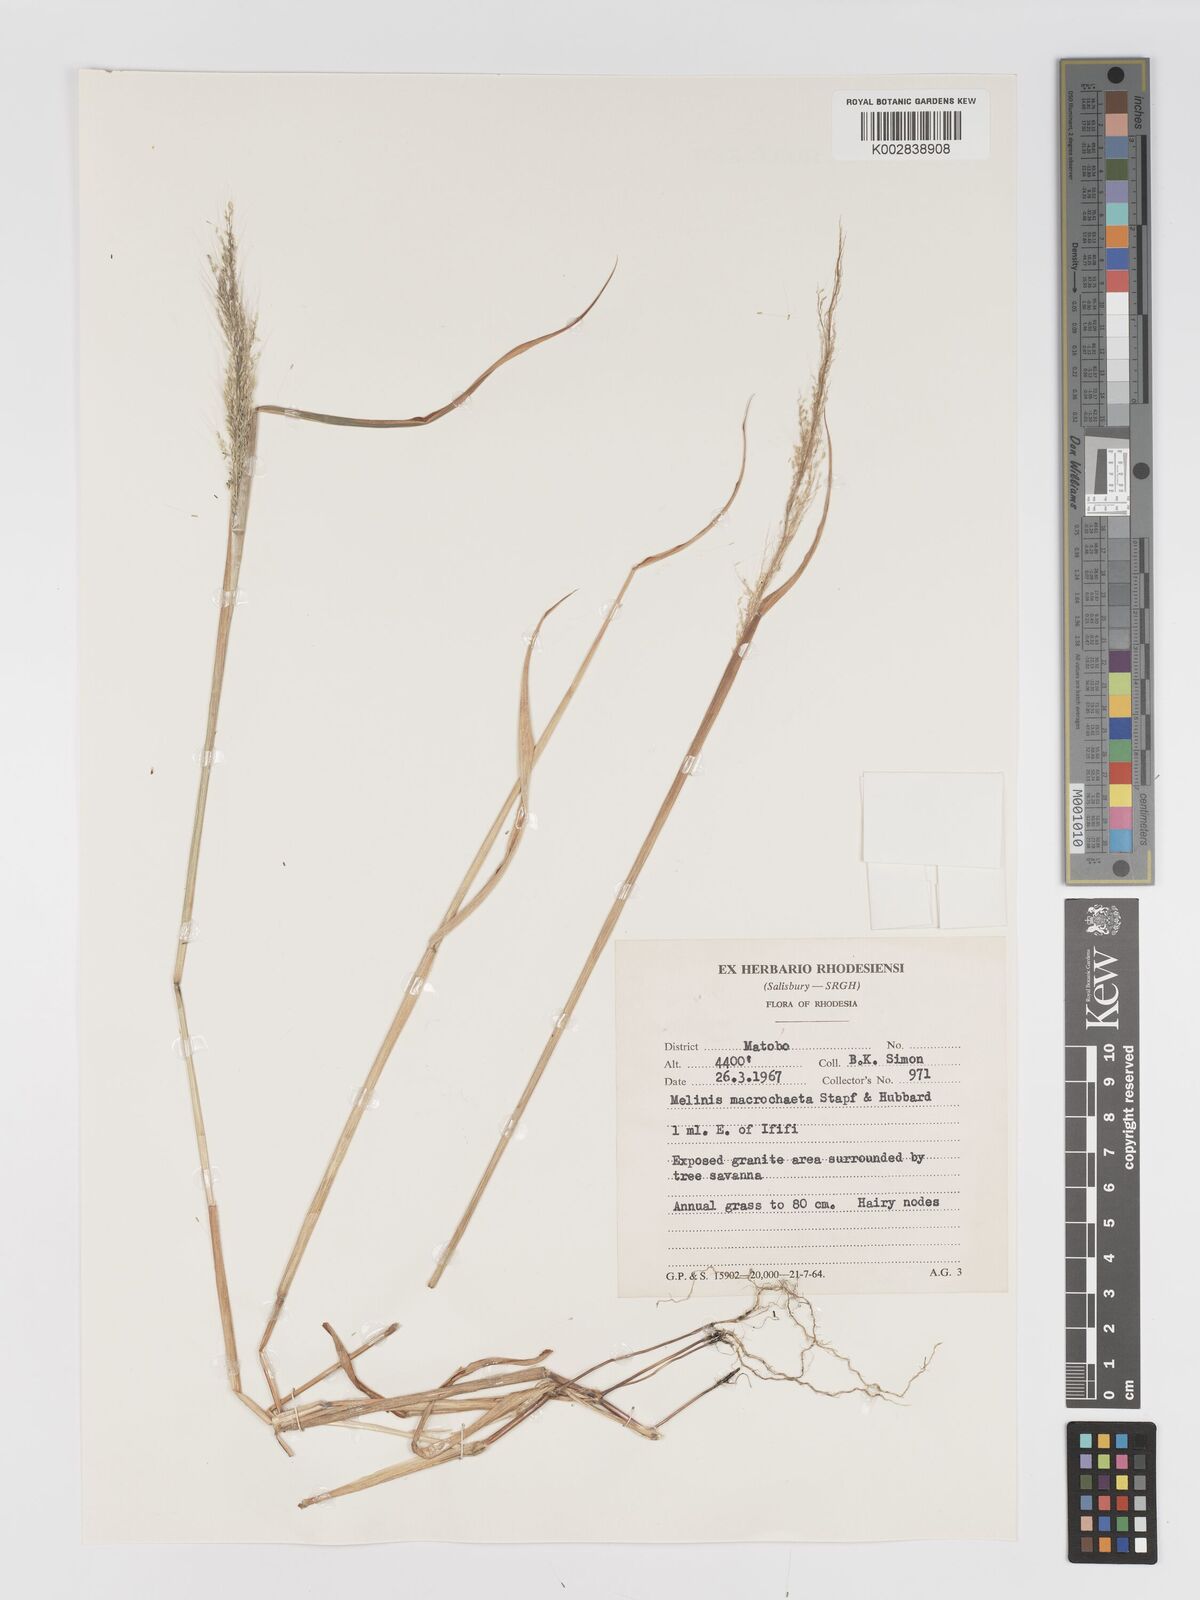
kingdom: Plantae
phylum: Tracheophyta
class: Liliopsida
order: Poales
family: Poaceae
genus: Melinis
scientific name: Melinis macrochaeta
